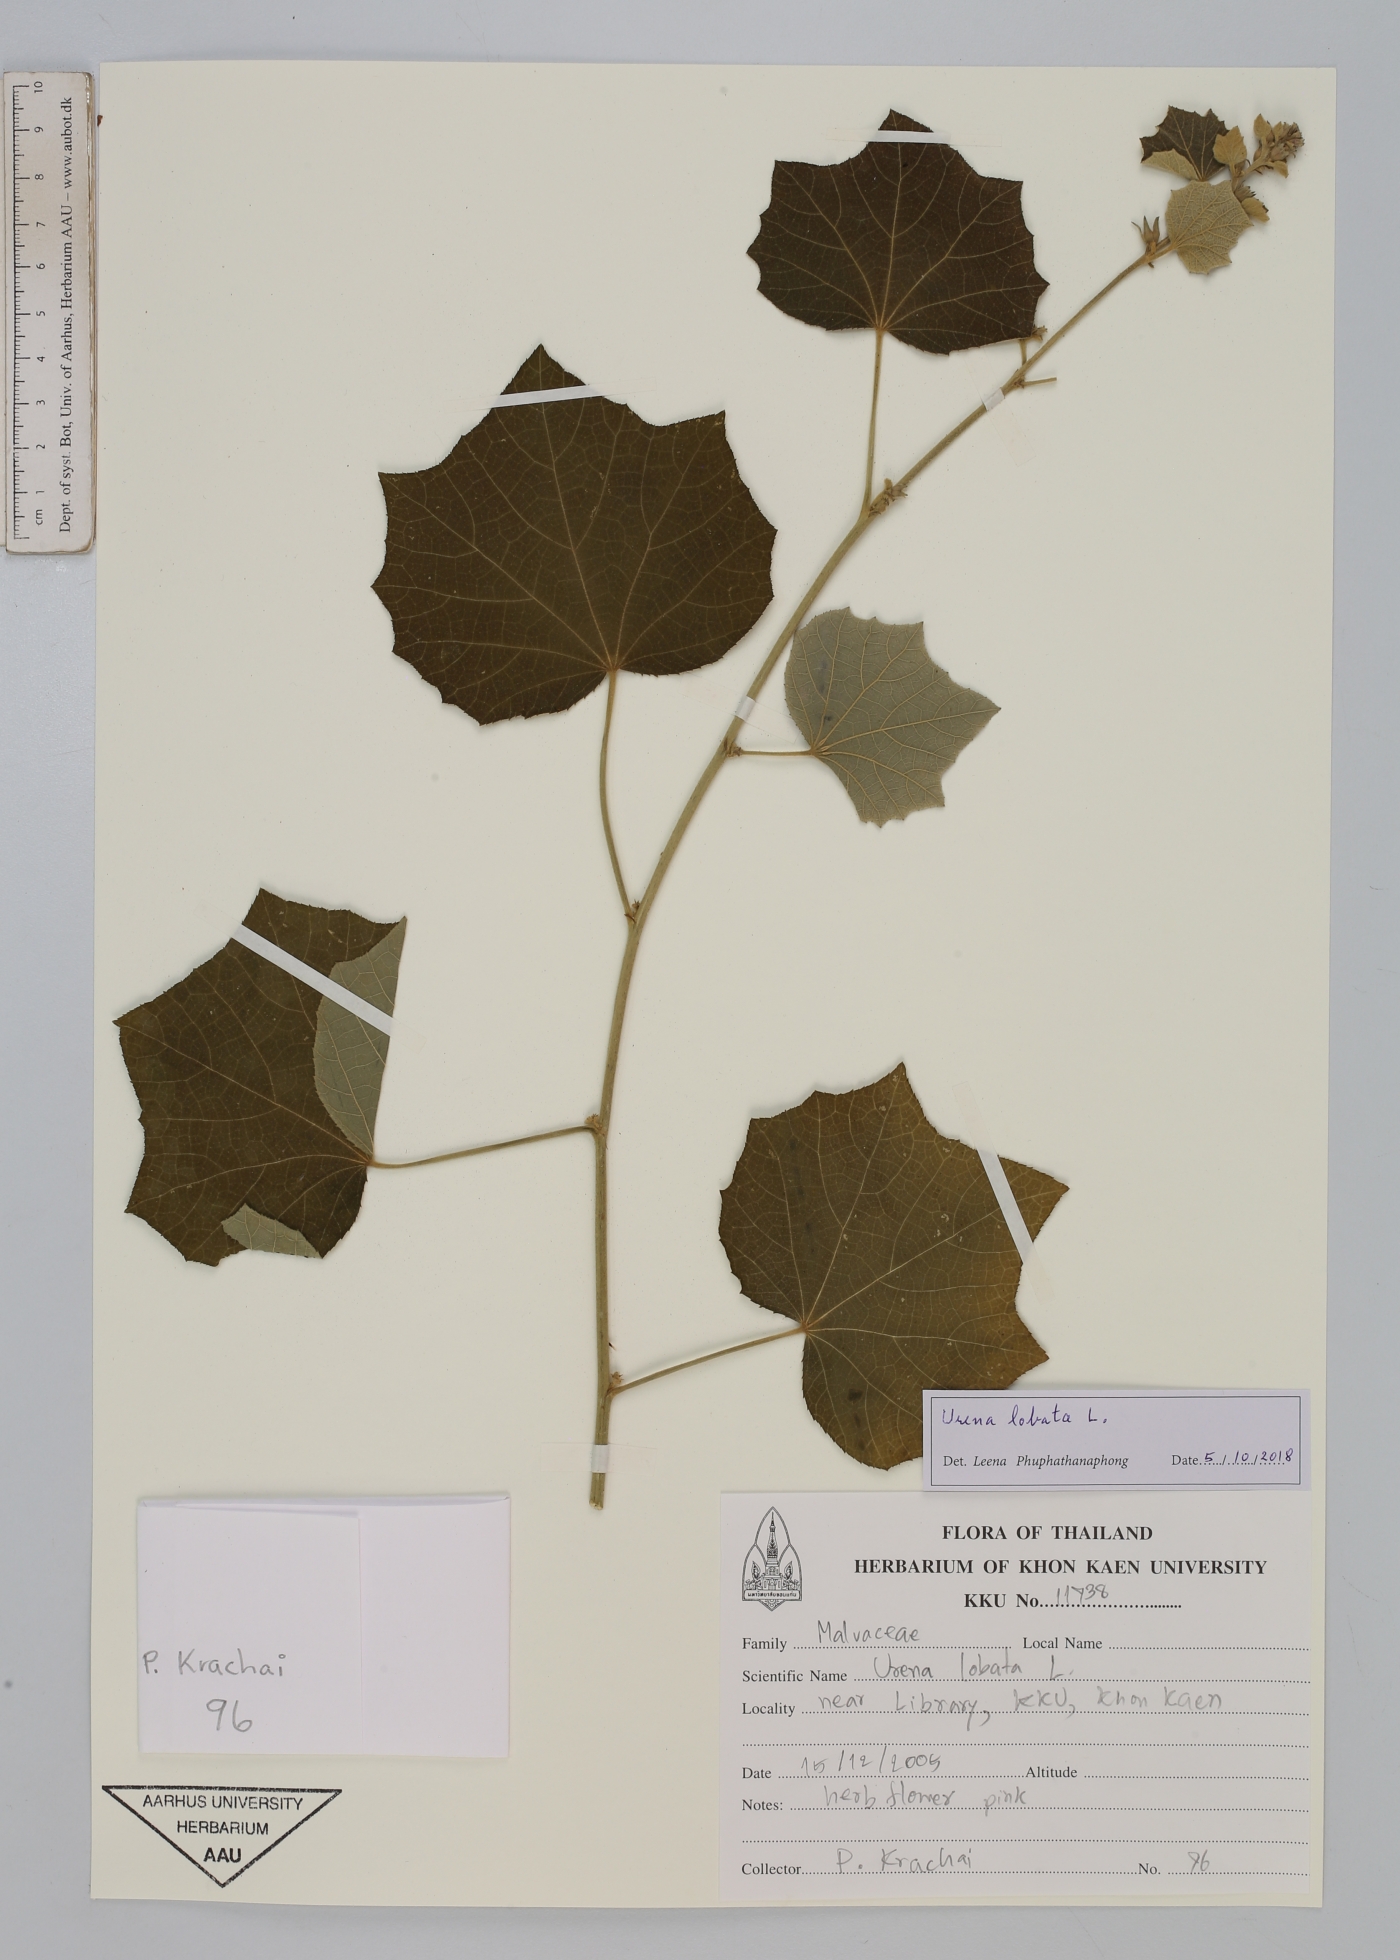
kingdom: Plantae
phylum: Tracheophyta
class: Magnoliopsida
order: Malvales
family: Malvaceae
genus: Urena
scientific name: Urena lobata
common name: Caesarweed
